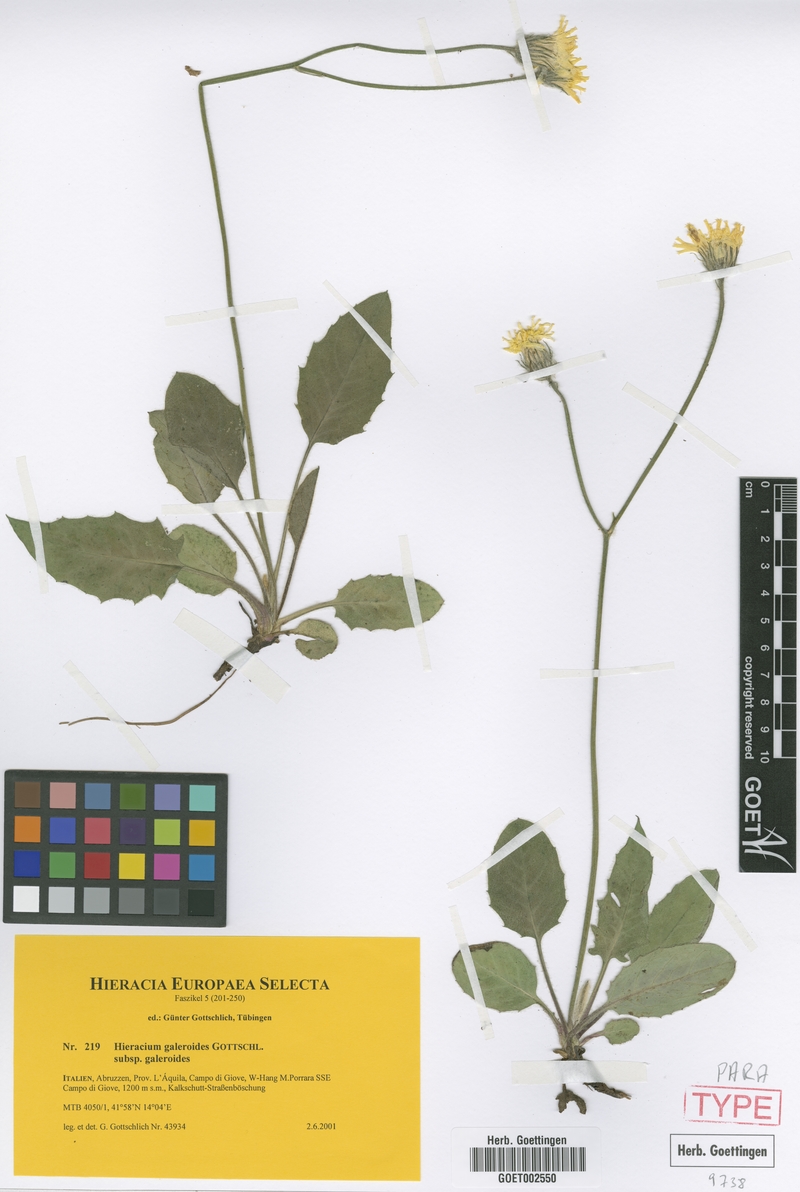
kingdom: Plantae
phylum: Tracheophyta
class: Magnoliopsida
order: Asterales
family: Asteraceae
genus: Hieracium
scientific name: Hieracium galeroides
